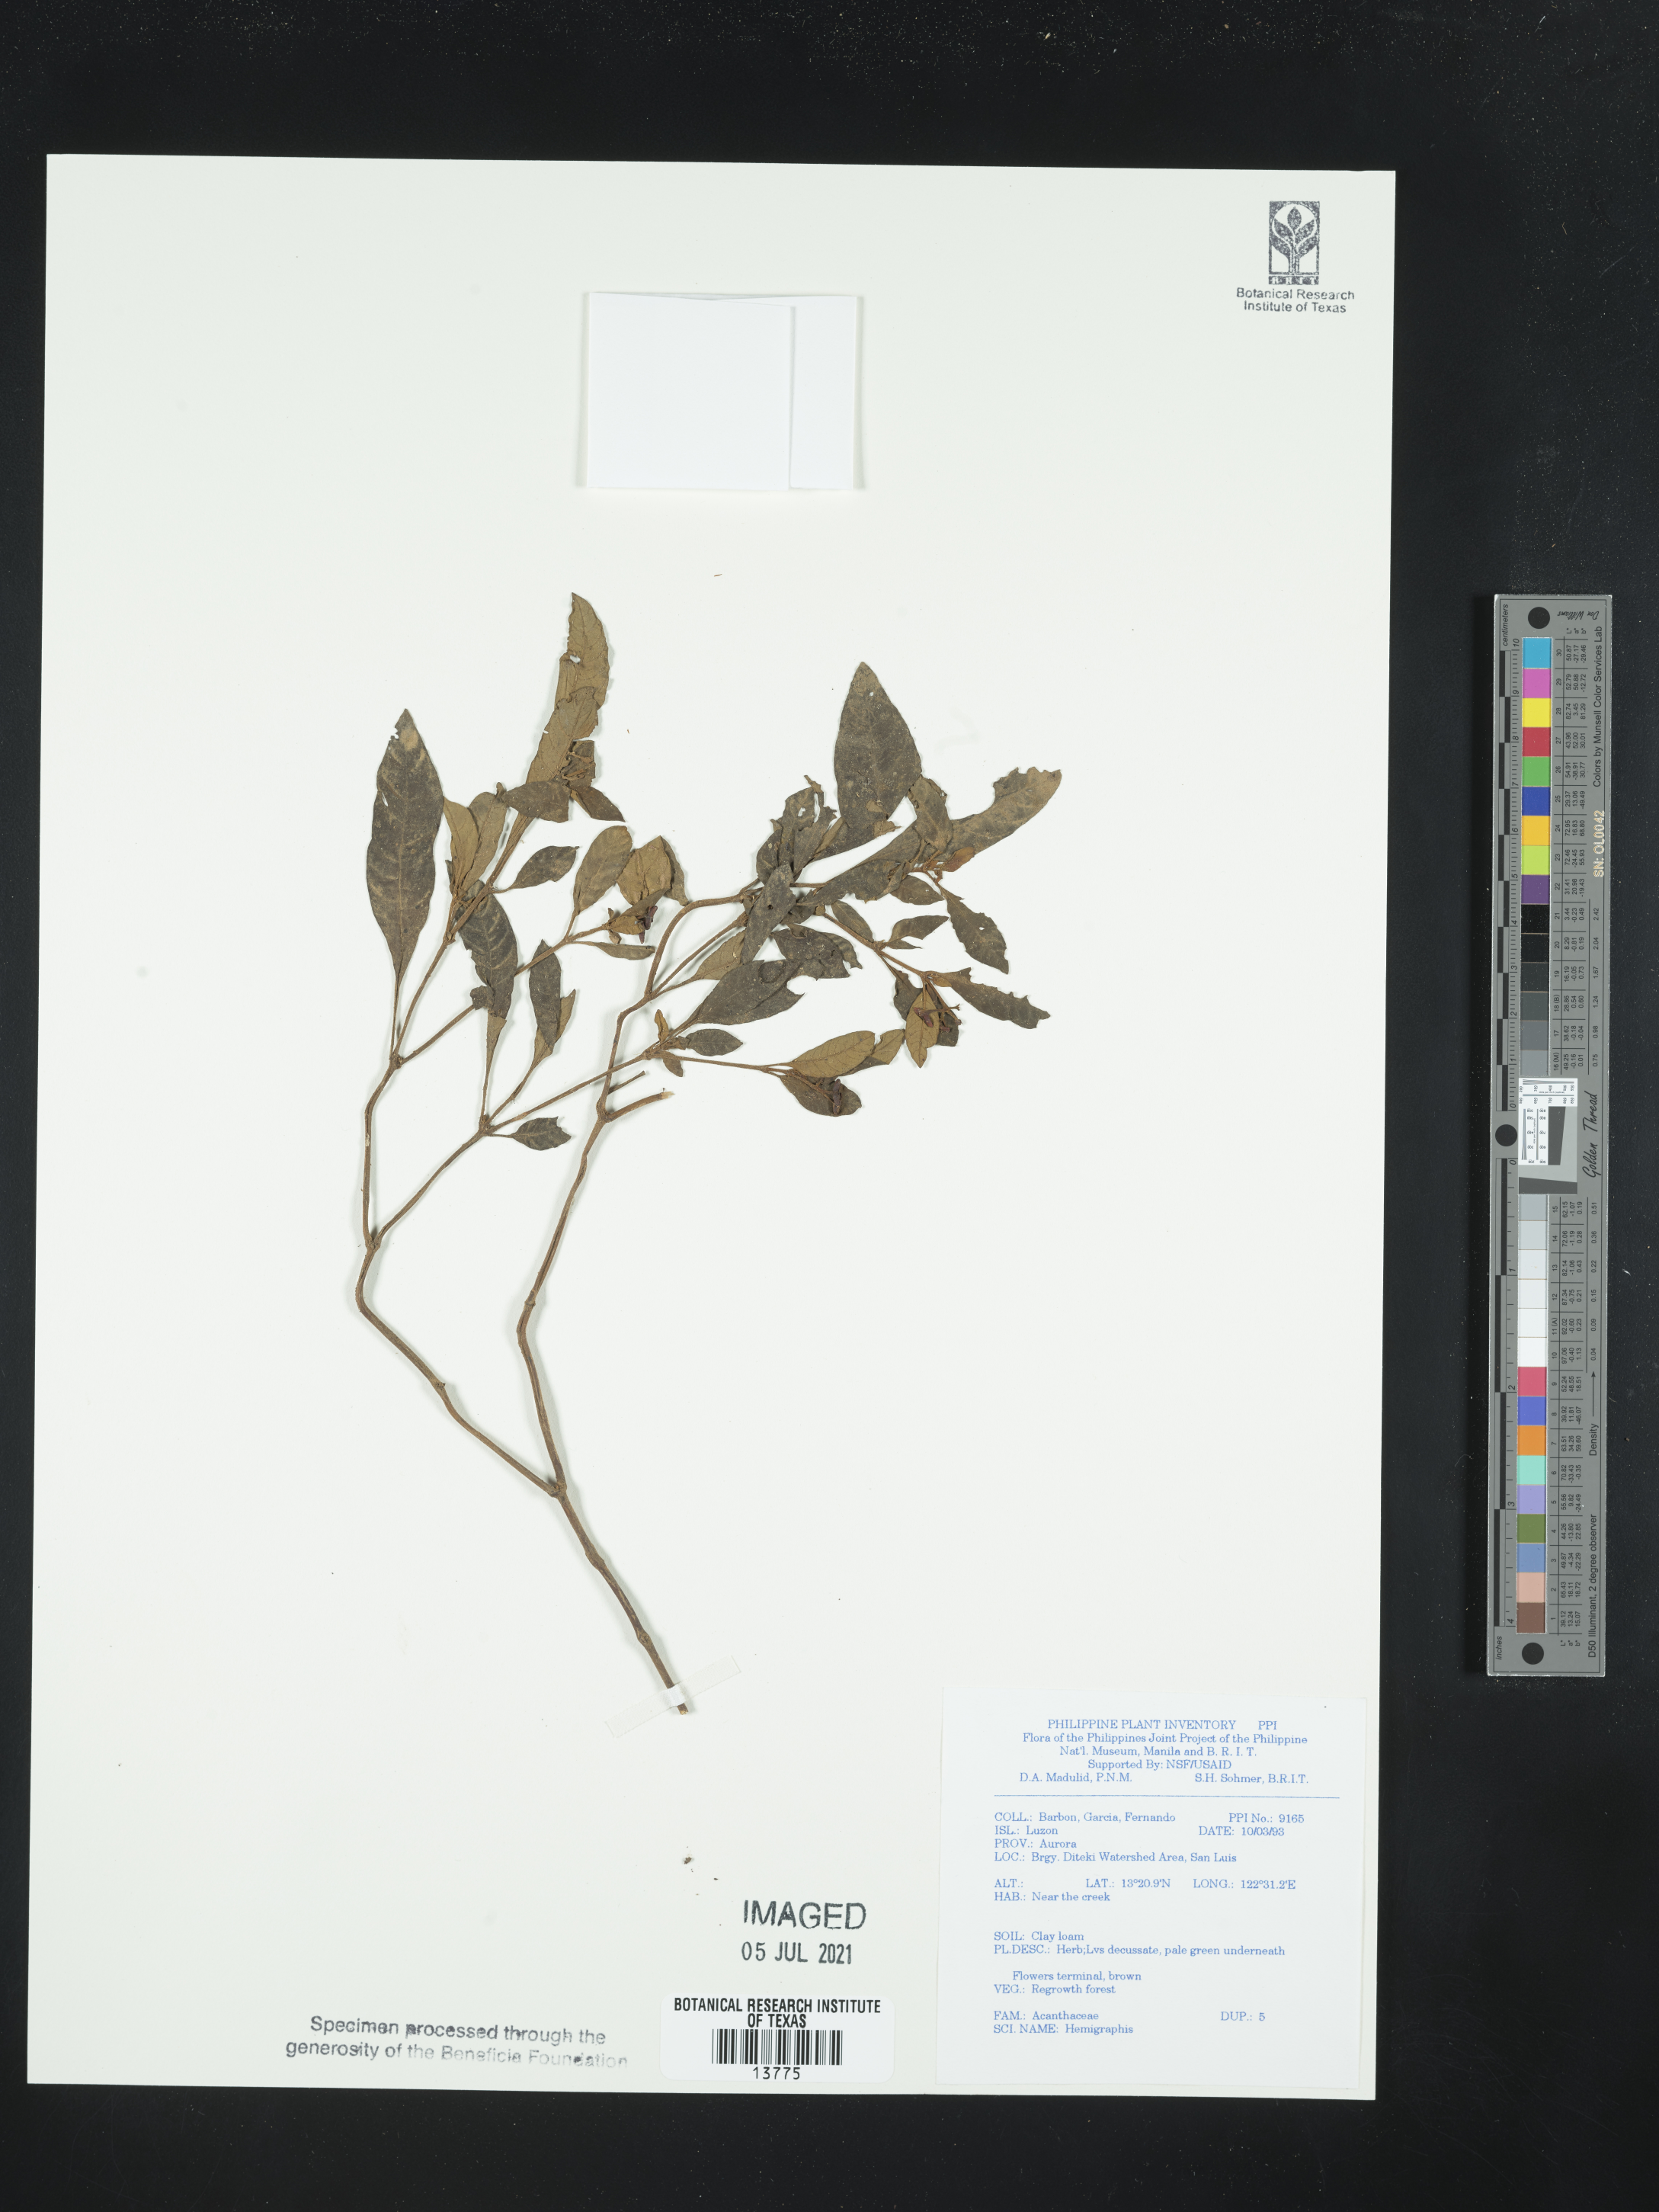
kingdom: Plantae
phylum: Tracheophyta
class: Magnoliopsida
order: Lamiales
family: Acanthaceae
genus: Hemigraphis
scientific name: Hemigraphis
